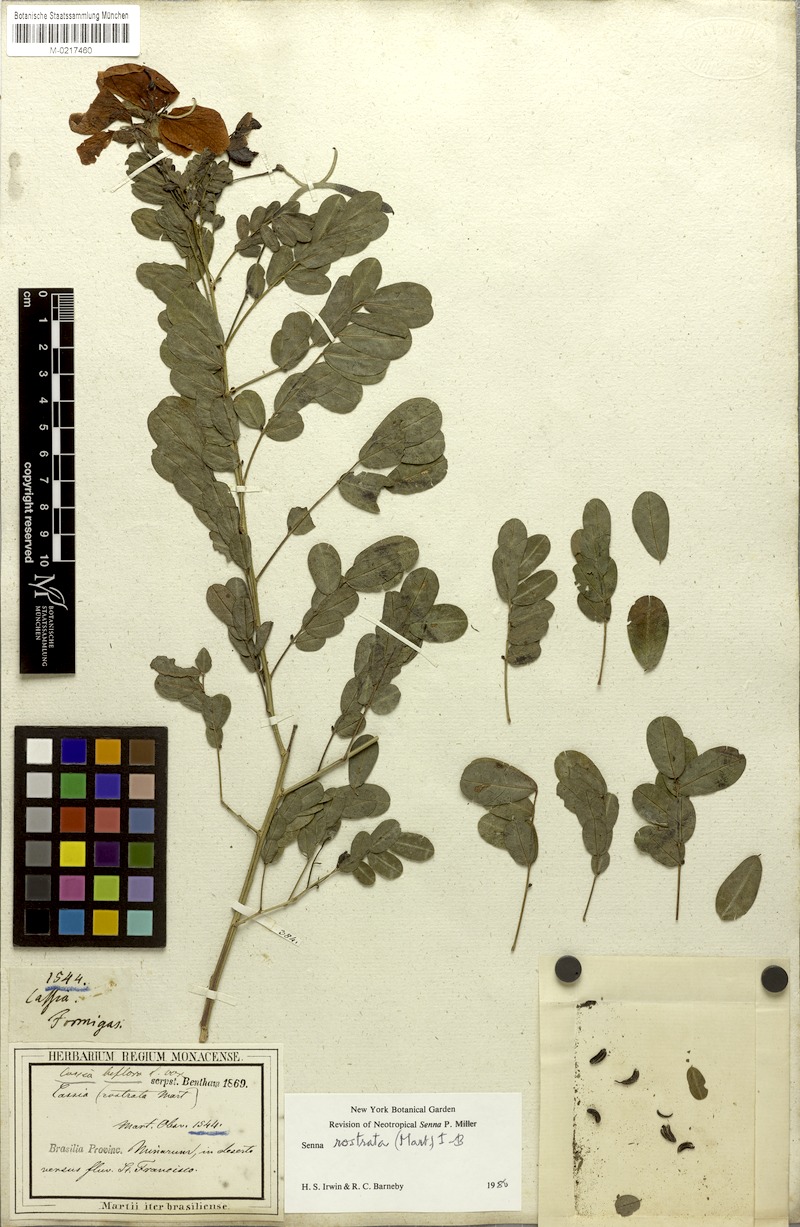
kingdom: Plantae
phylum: Tracheophyta
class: Magnoliopsida
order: Fabales
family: Fabaceae
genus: Senna
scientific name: Senna rostrata
